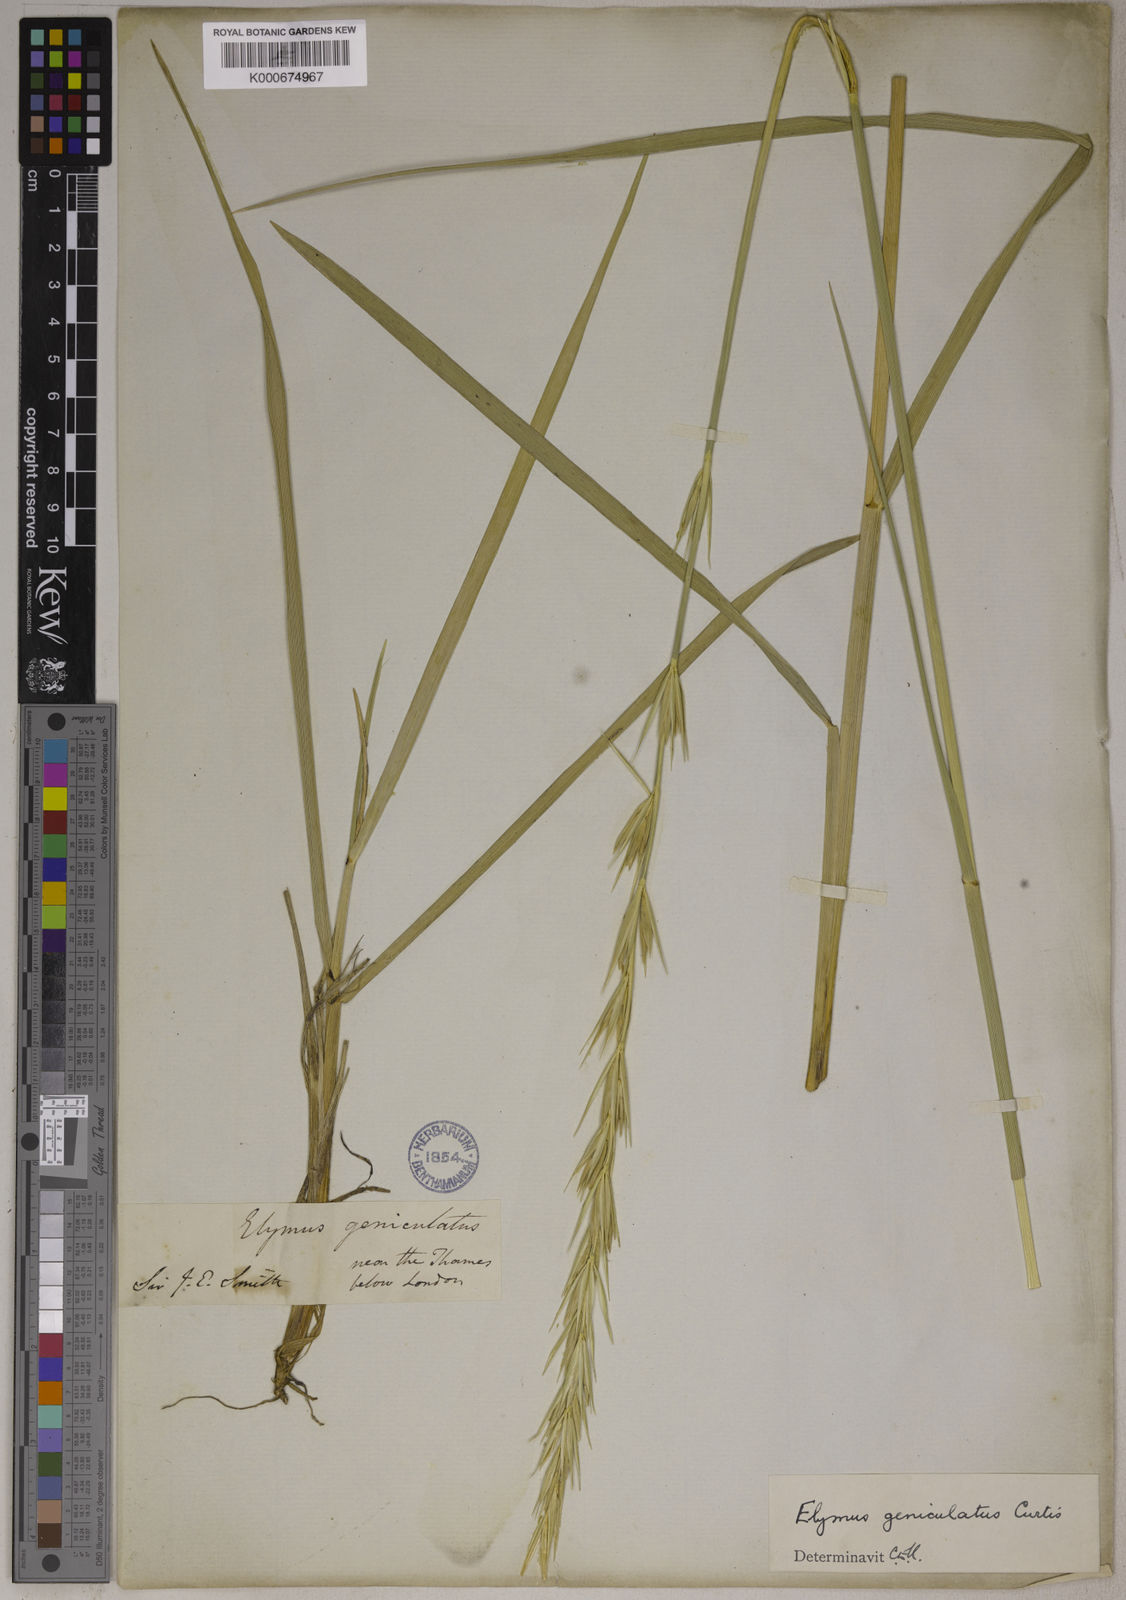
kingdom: Plantae
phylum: Tracheophyta
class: Liliopsida
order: Poales
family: Poaceae
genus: Leymus
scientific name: Leymus arenarius
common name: Lyme-grass
